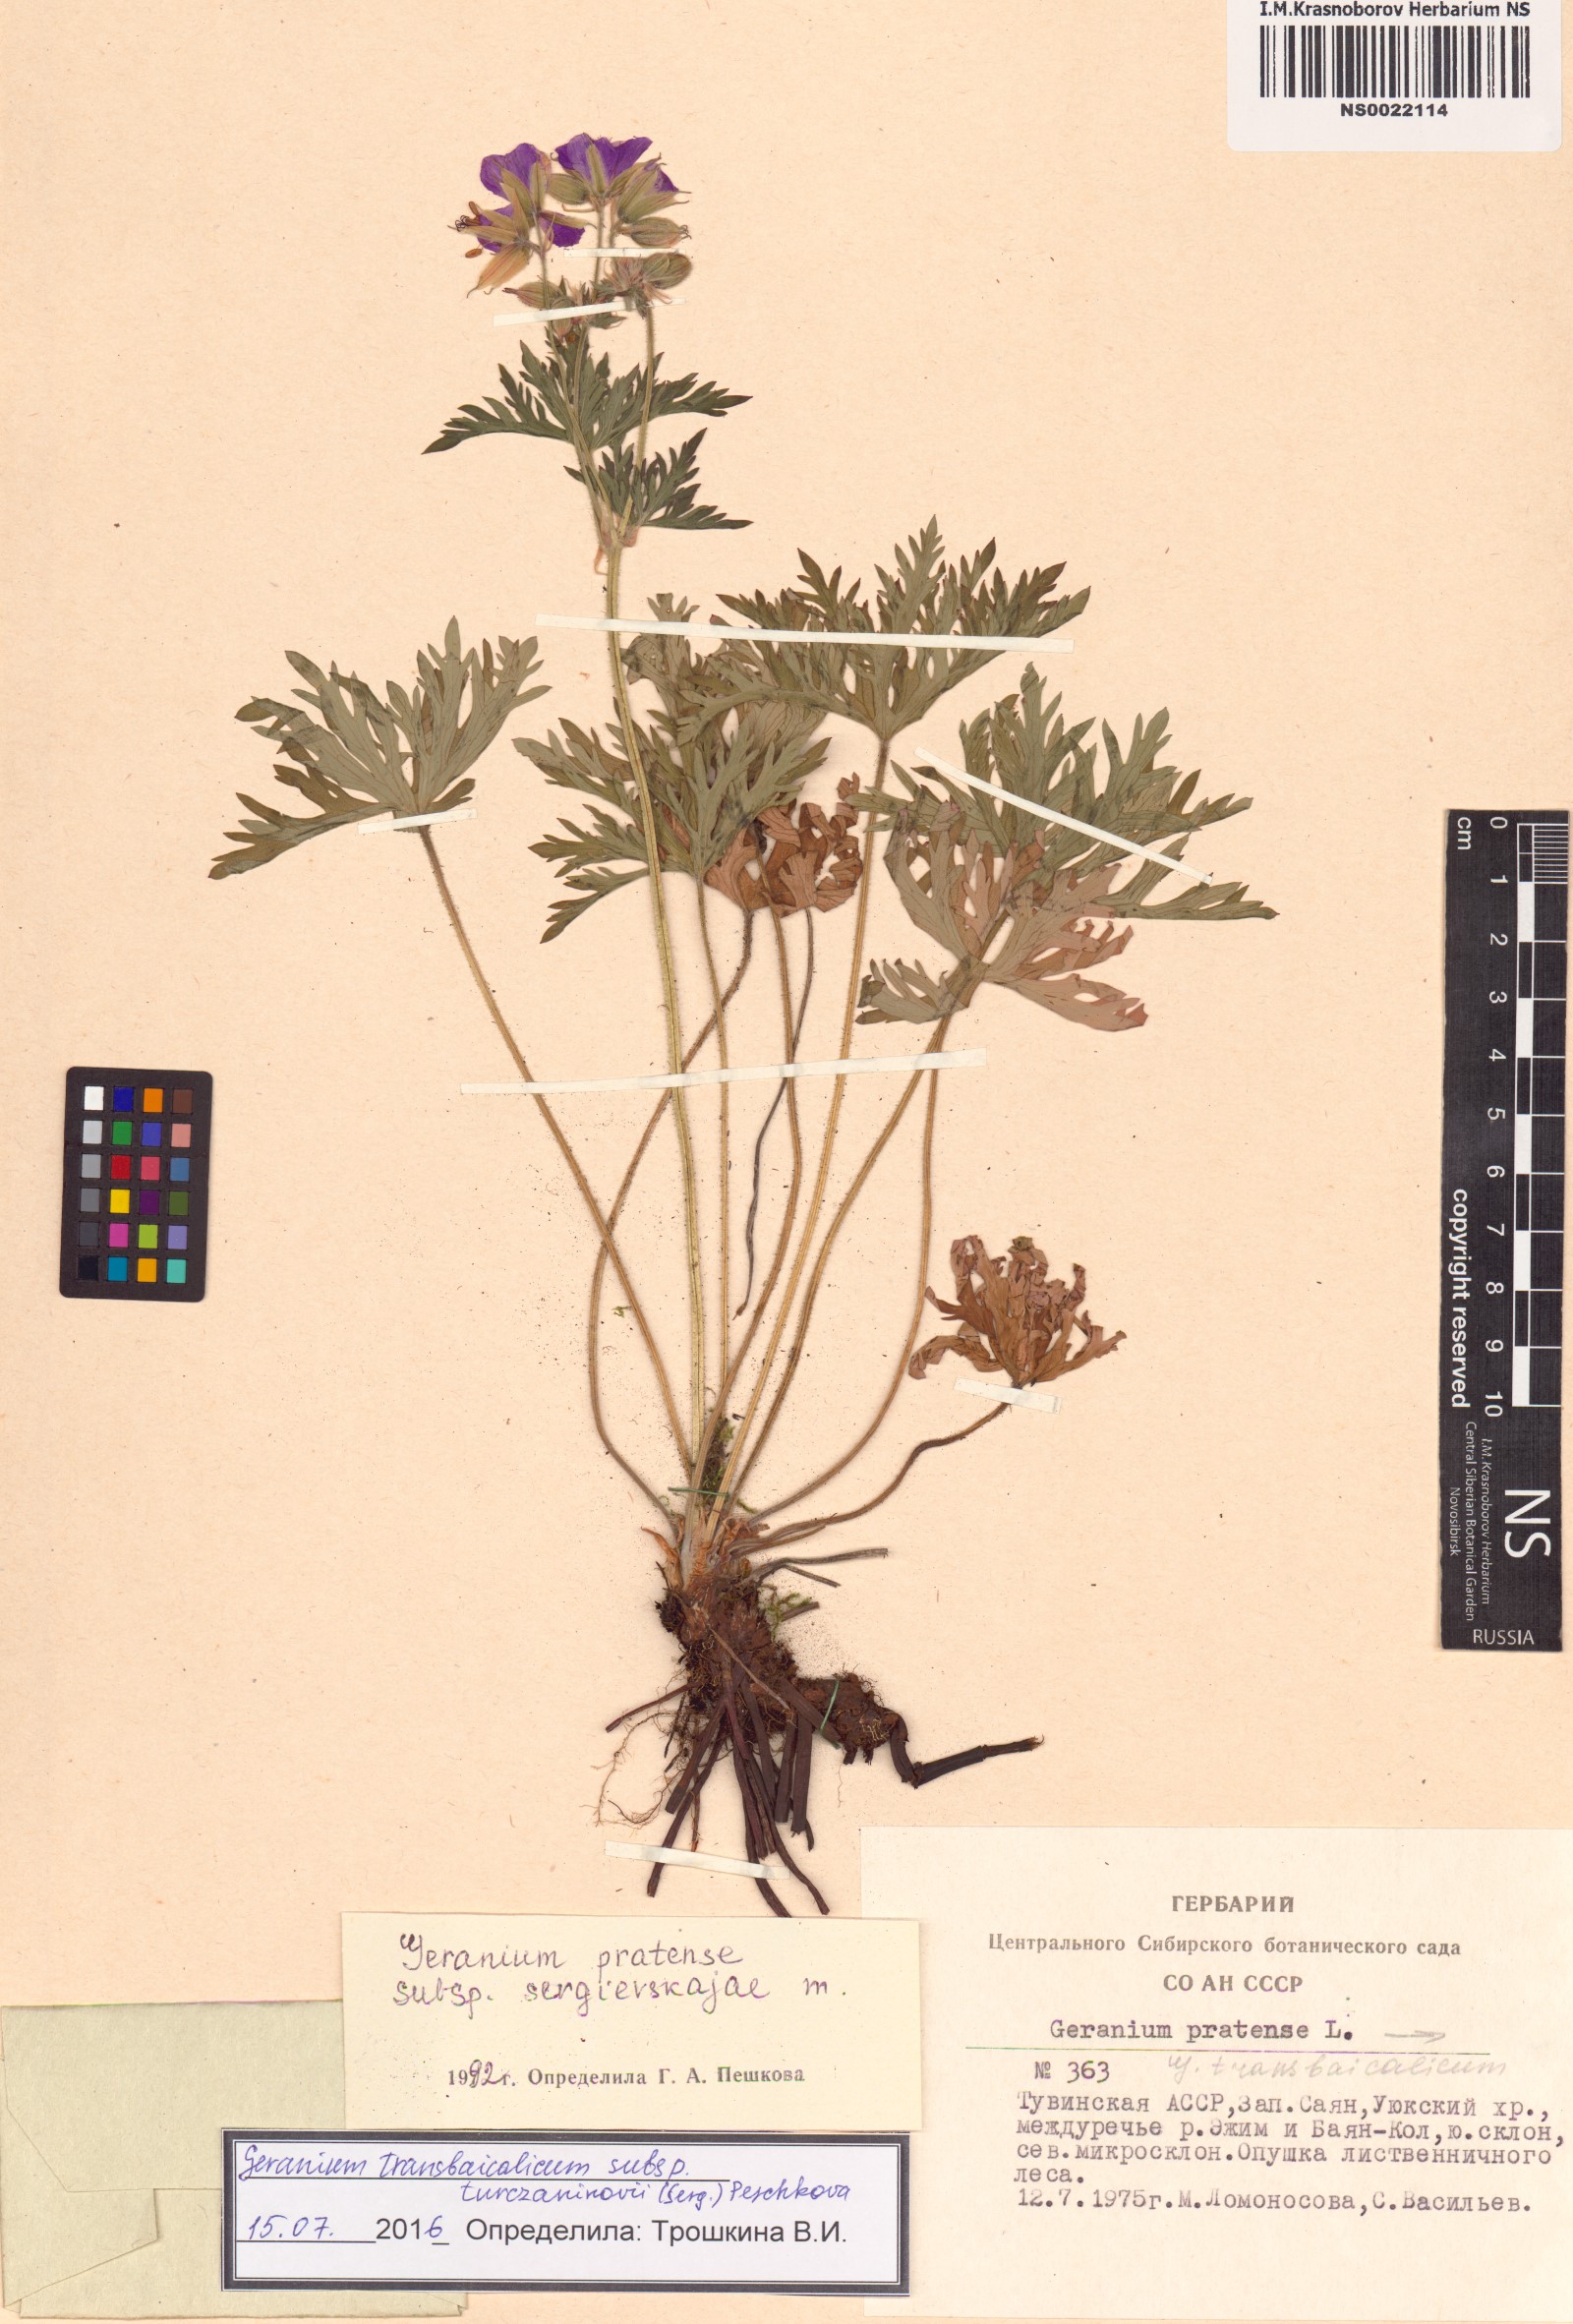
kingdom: Plantae
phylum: Tracheophyta
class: Magnoliopsida
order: Geraniales
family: Geraniaceae
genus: Geranium
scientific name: Geranium pratense
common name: Meadow crane's-bill
